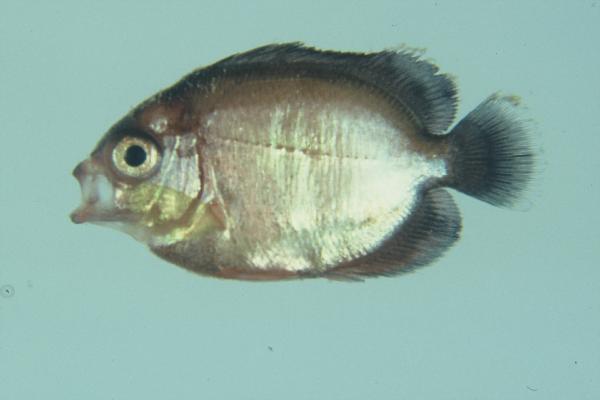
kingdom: Animalia
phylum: Chordata
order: Perciformes
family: Pomacanthidae
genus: Centropyge
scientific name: Centropyge bispinosa
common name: Coral beauty
